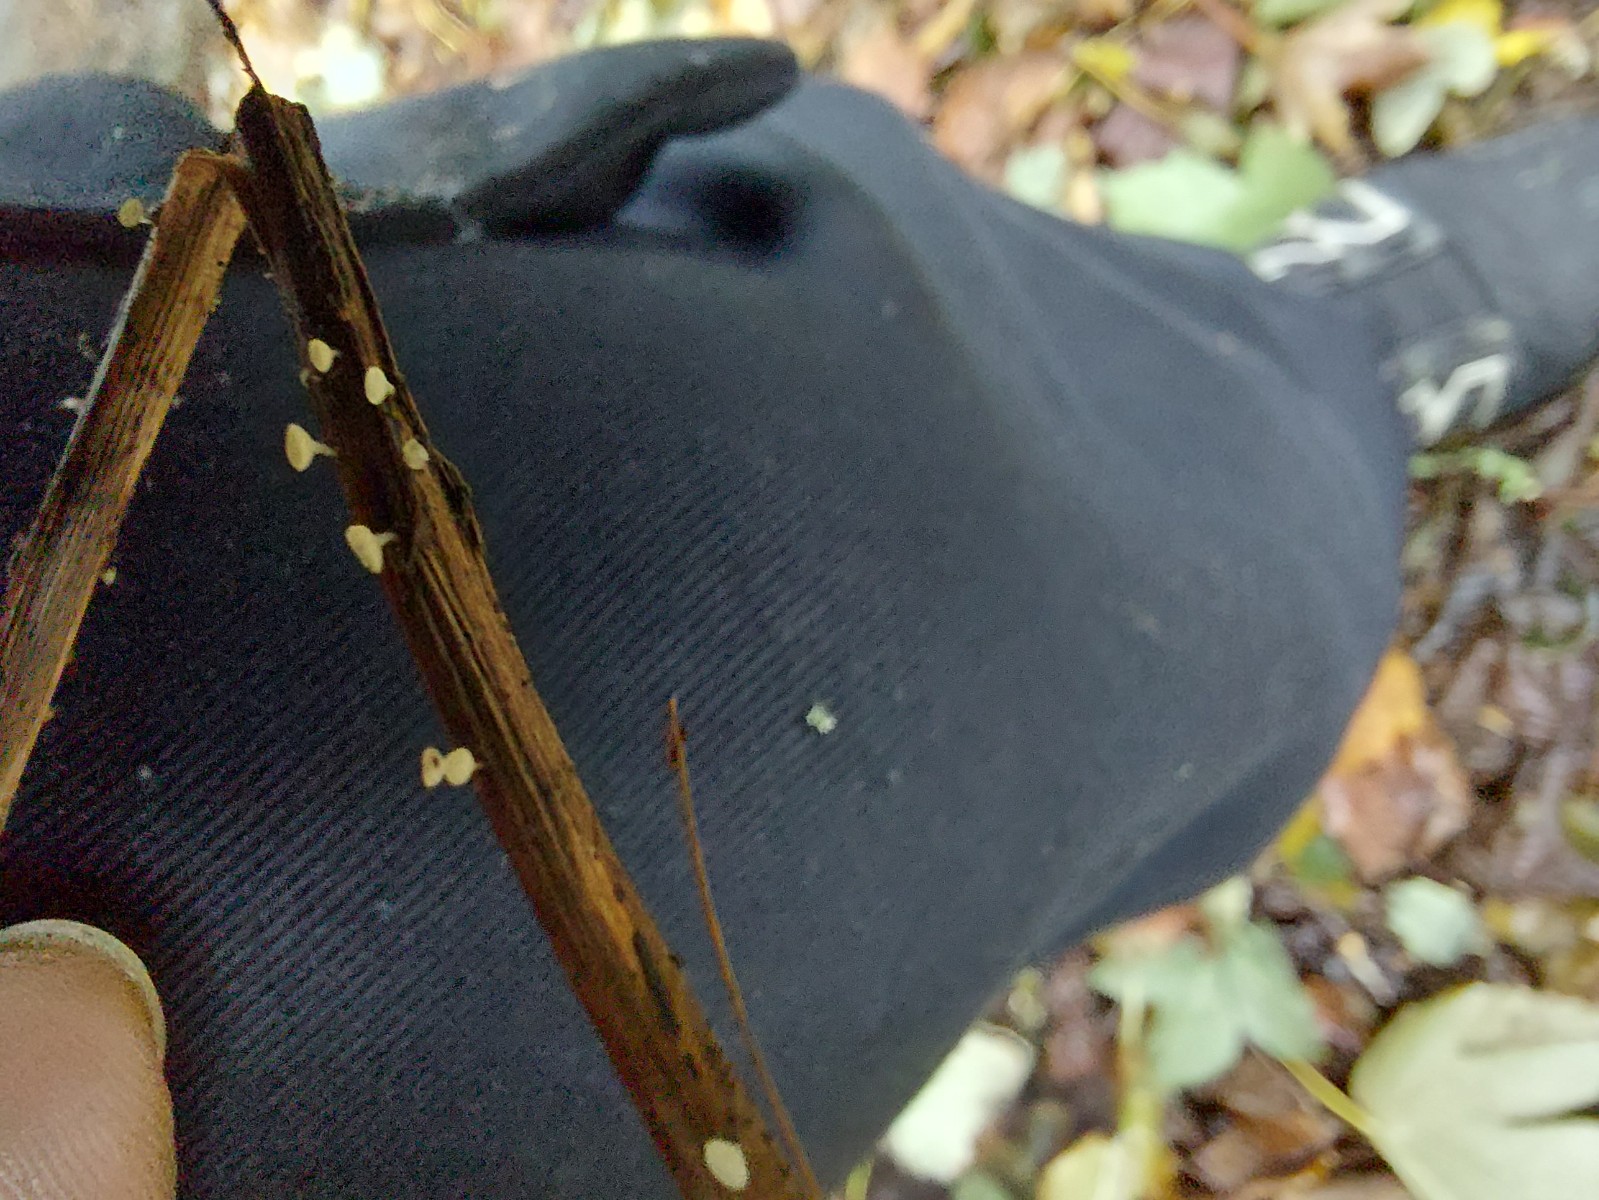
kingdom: Fungi
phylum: Ascomycota
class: Leotiomycetes
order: Helotiales
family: Helotiaceae
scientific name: Helotiaceae
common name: stilkskivefamilien
